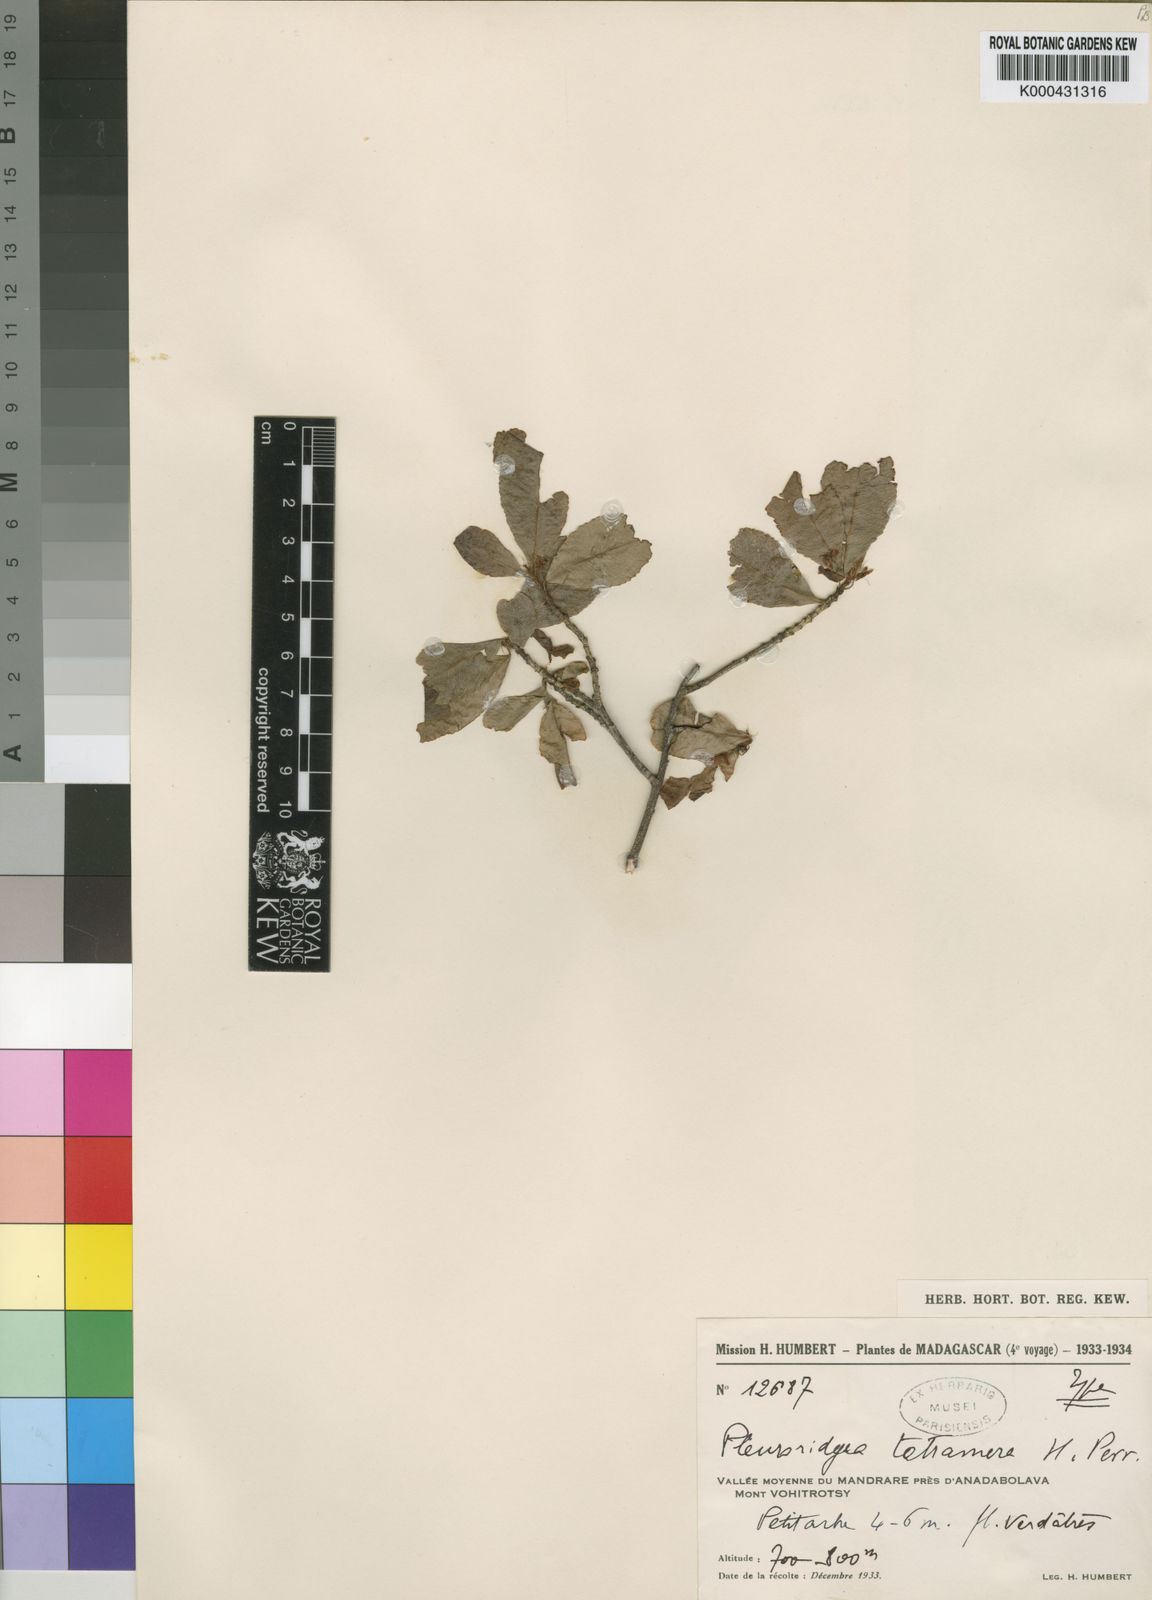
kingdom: Plantae
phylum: Tracheophyta
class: Magnoliopsida
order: Malpighiales
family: Ochnaceae
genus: Brackenridgea
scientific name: Brackenridgea tetramera
